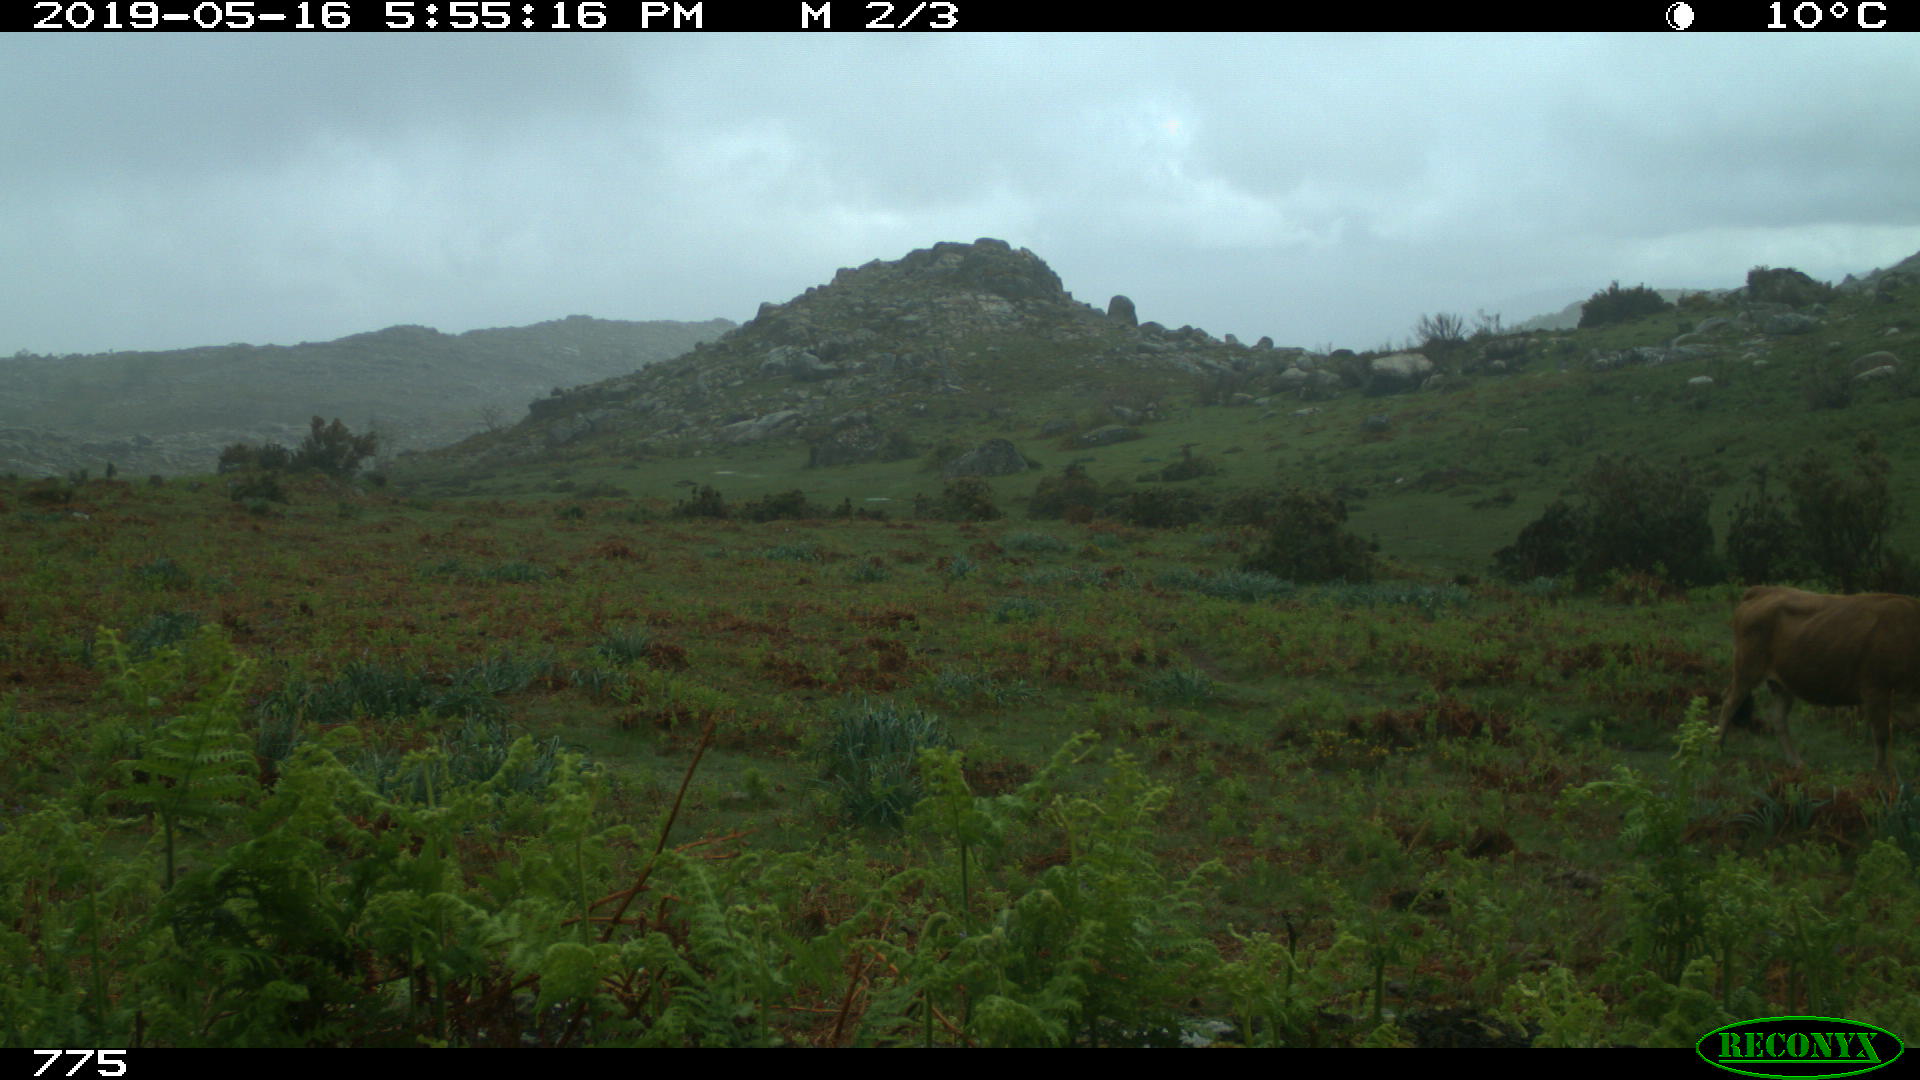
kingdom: Animalia
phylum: Chordata
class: Mammalia
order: Artiodactyla
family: Bovidae
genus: Bos
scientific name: Bos taurus
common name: Domesticated cattle
